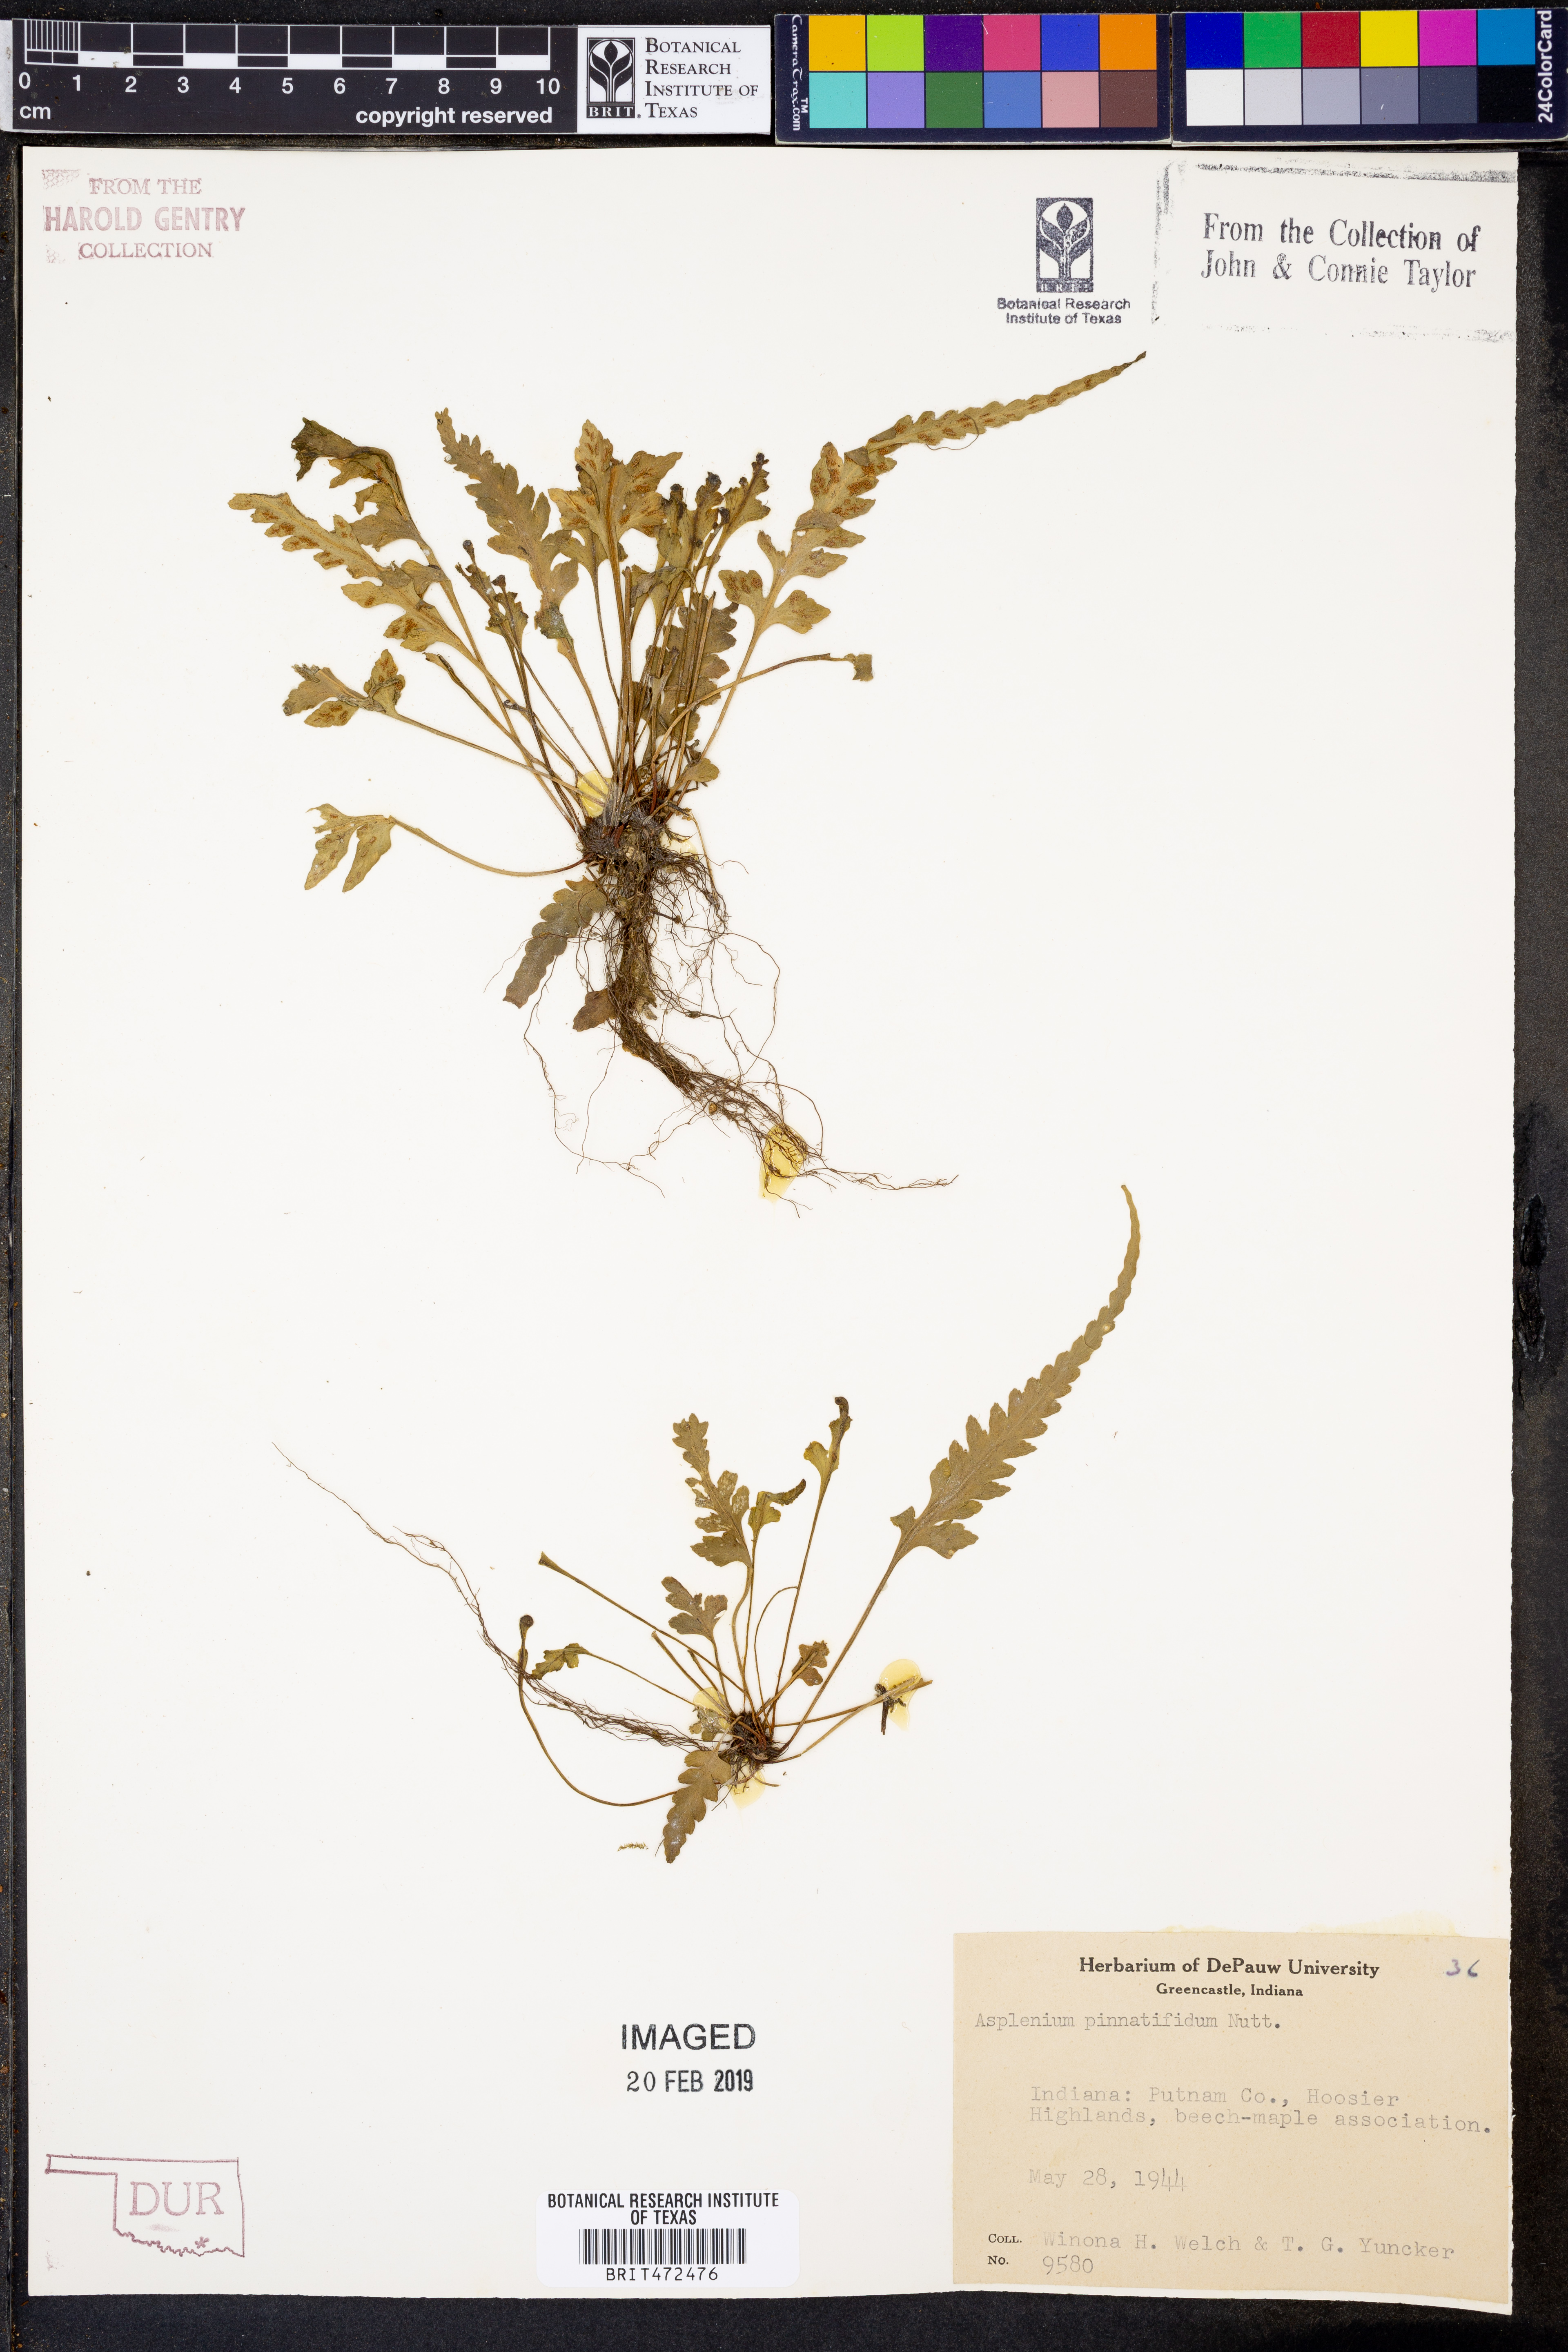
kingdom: Plantae
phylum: Tracheophyta
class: Polypodiopsida
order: Polypodiales
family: Aspleniaceae
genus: Asplenium
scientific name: Asplenium pinnatifidum
